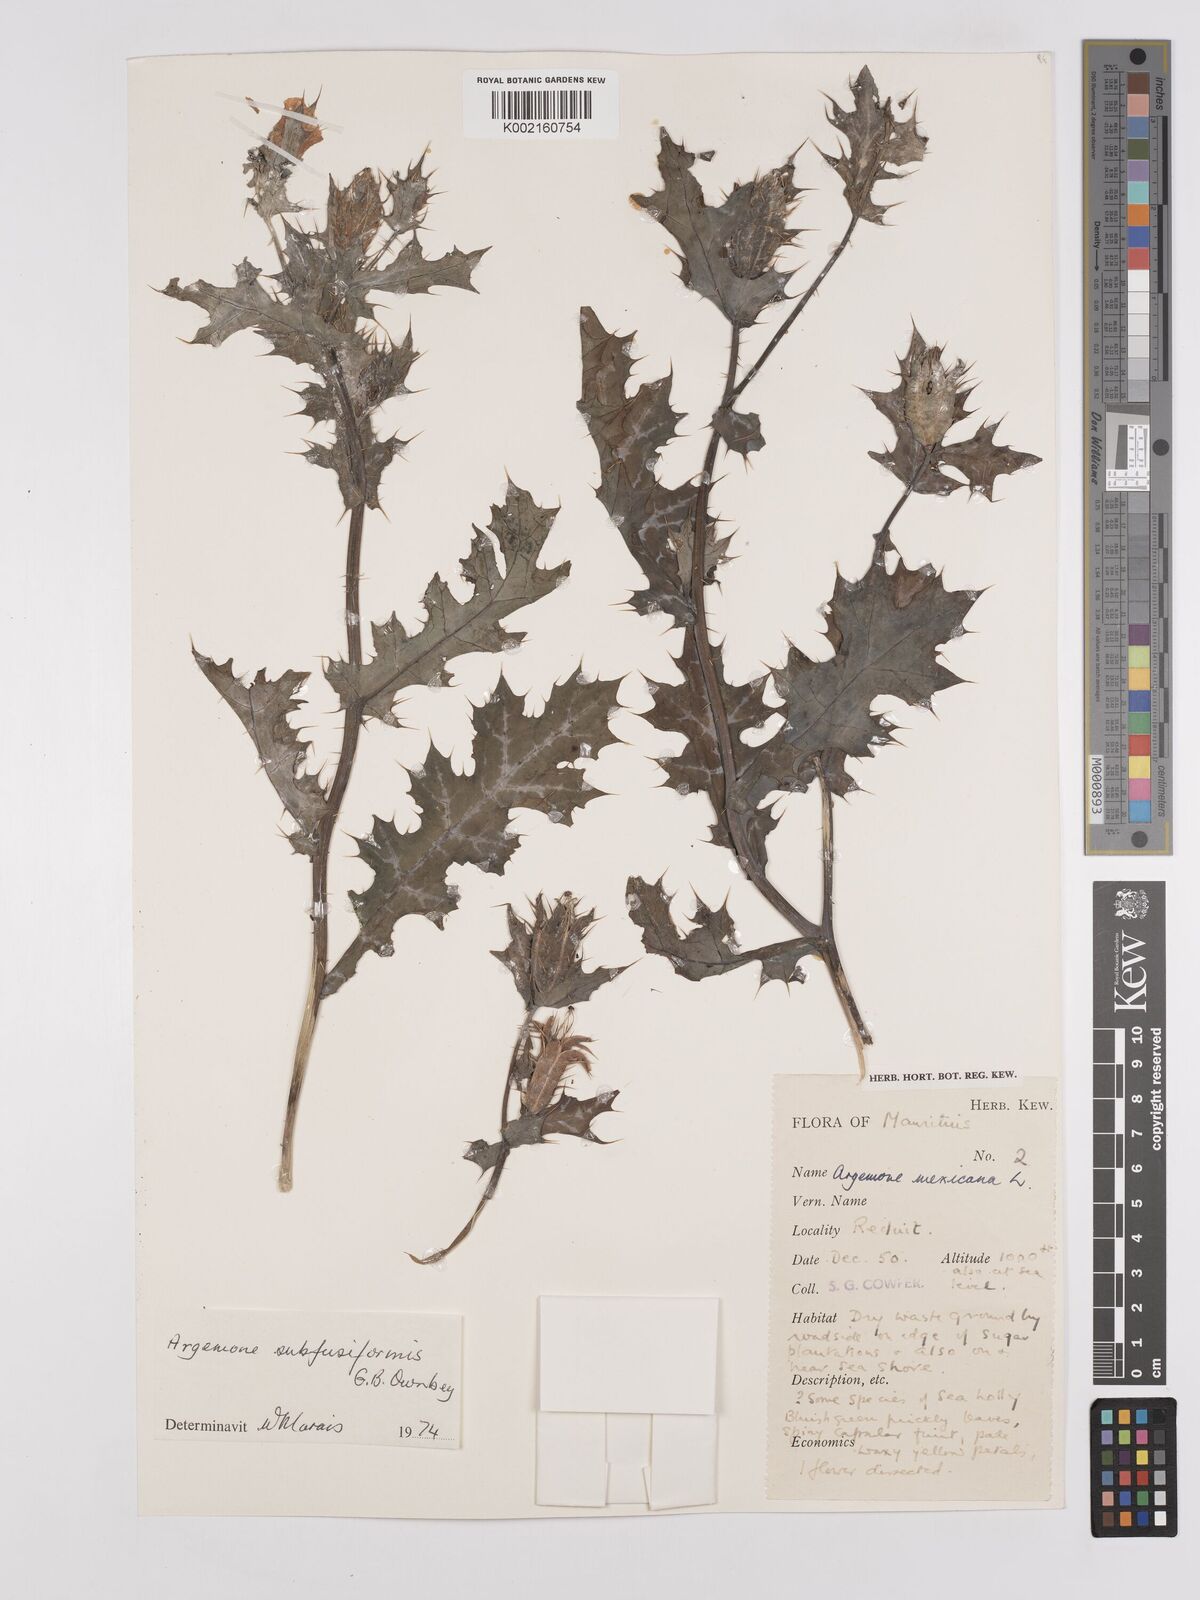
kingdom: Plantae
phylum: Tracheophyta
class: Magnoliopsida
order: Ranunculales
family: Papaveraceae
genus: Argemone
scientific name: Argemone subfusiformis
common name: American-poppy
